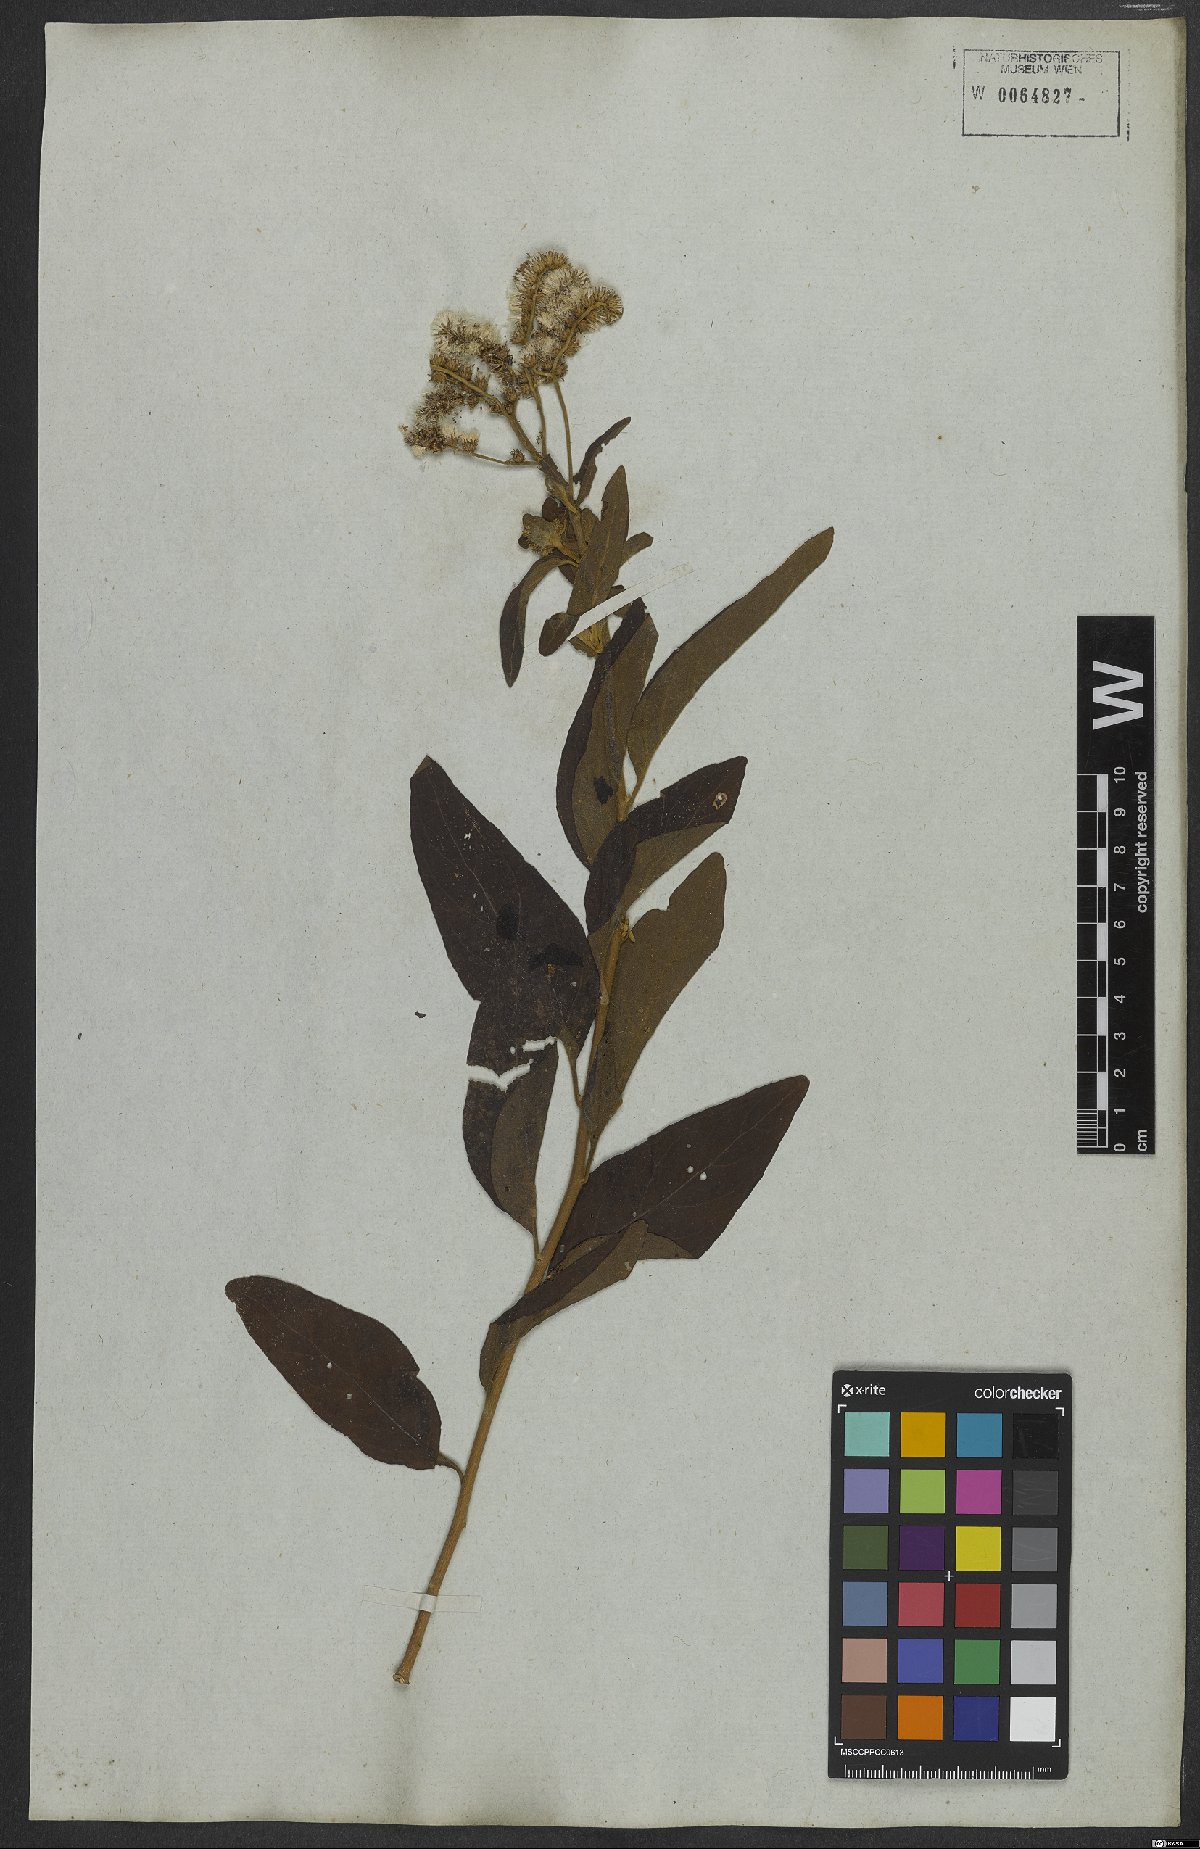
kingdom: Plantae
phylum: Tracheophyta
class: Magnoliopsida
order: Asterales
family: Asteraceae
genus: Cyrtocymura
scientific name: Cyrtocymura scorpioides
